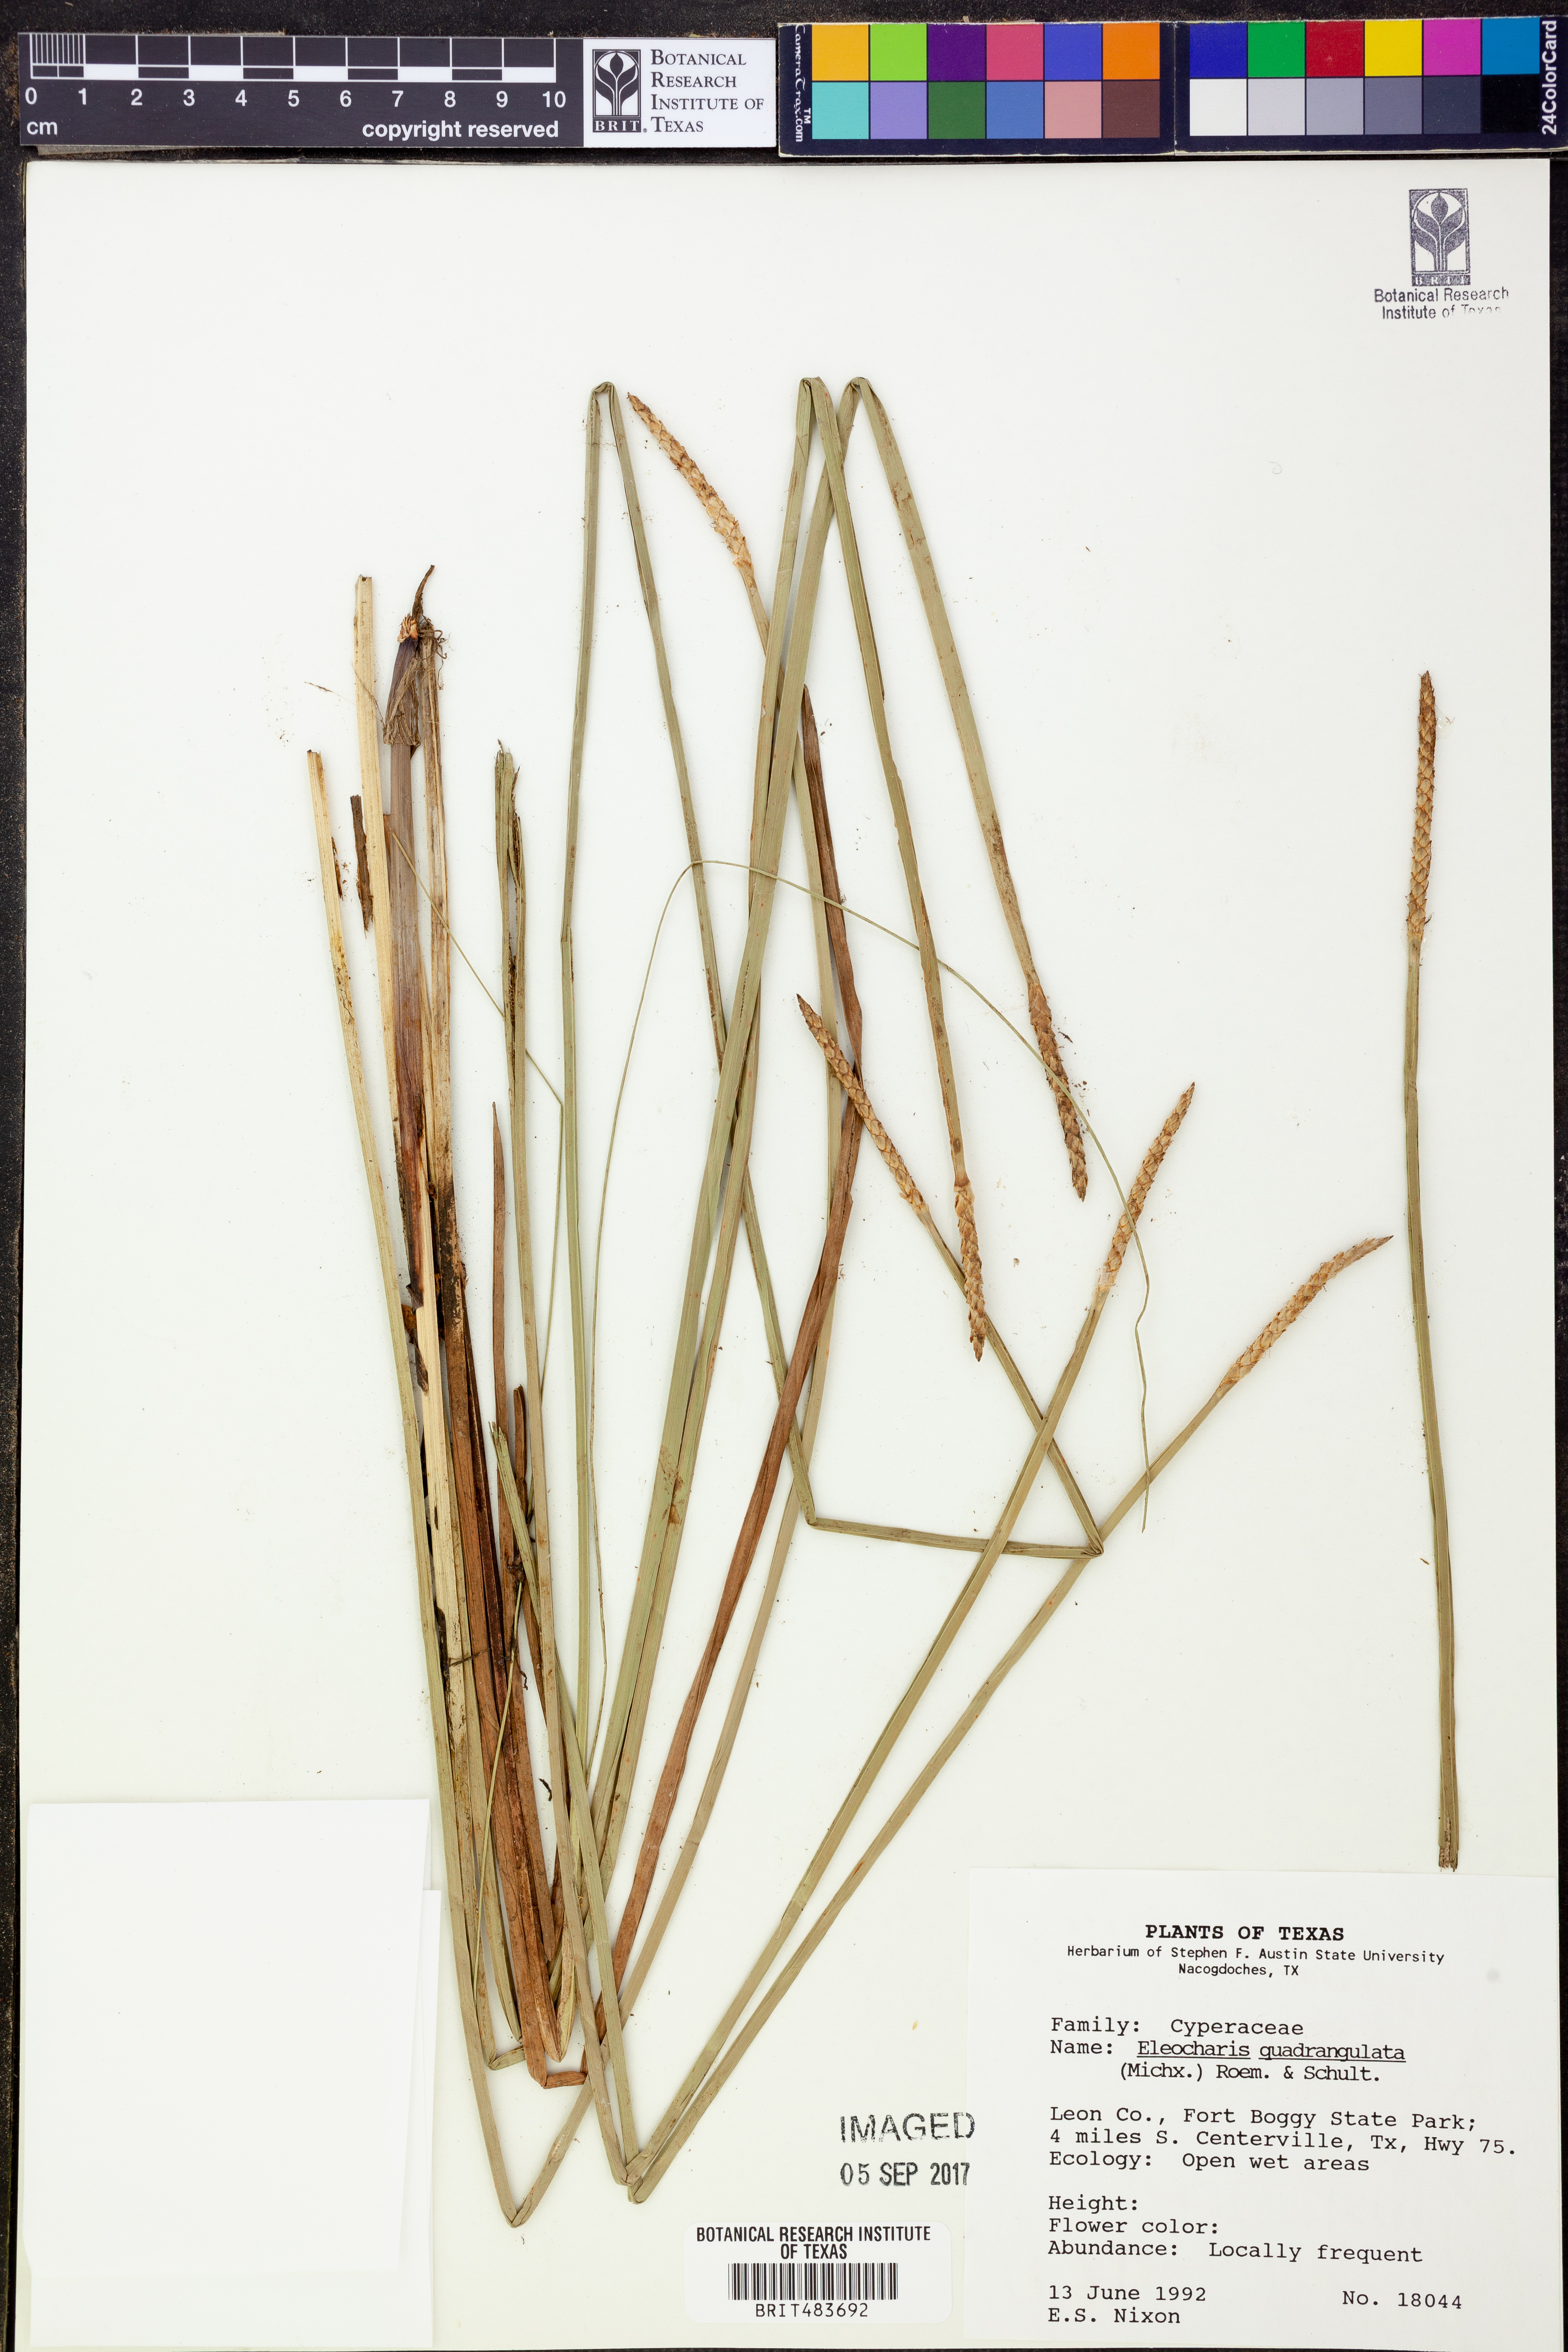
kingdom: Plantae
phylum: Tracheophyta
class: Liliopsida
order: Poales
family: Cyperaceae
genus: Eleocharis
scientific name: Eleocharis quadrangulata
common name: Square-stem spike-rush
